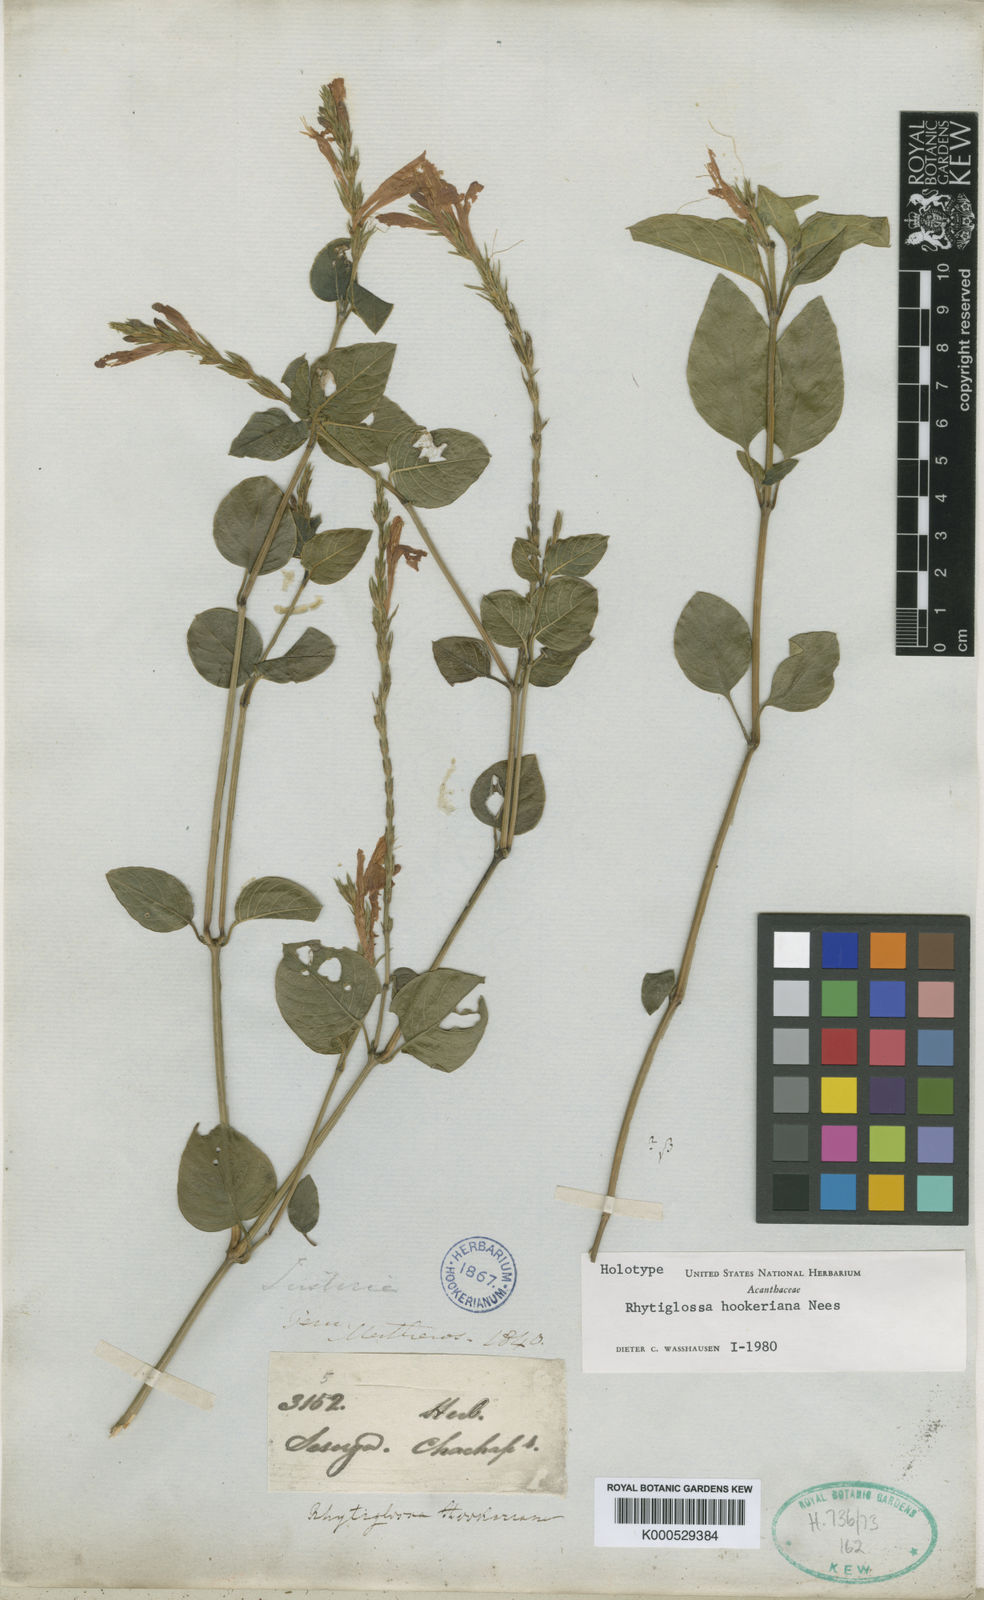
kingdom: Plantae
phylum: Tracheophyta
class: Magnoliopsida
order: Lamiales
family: Acanthaceae
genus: Justicia
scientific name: Justicia
